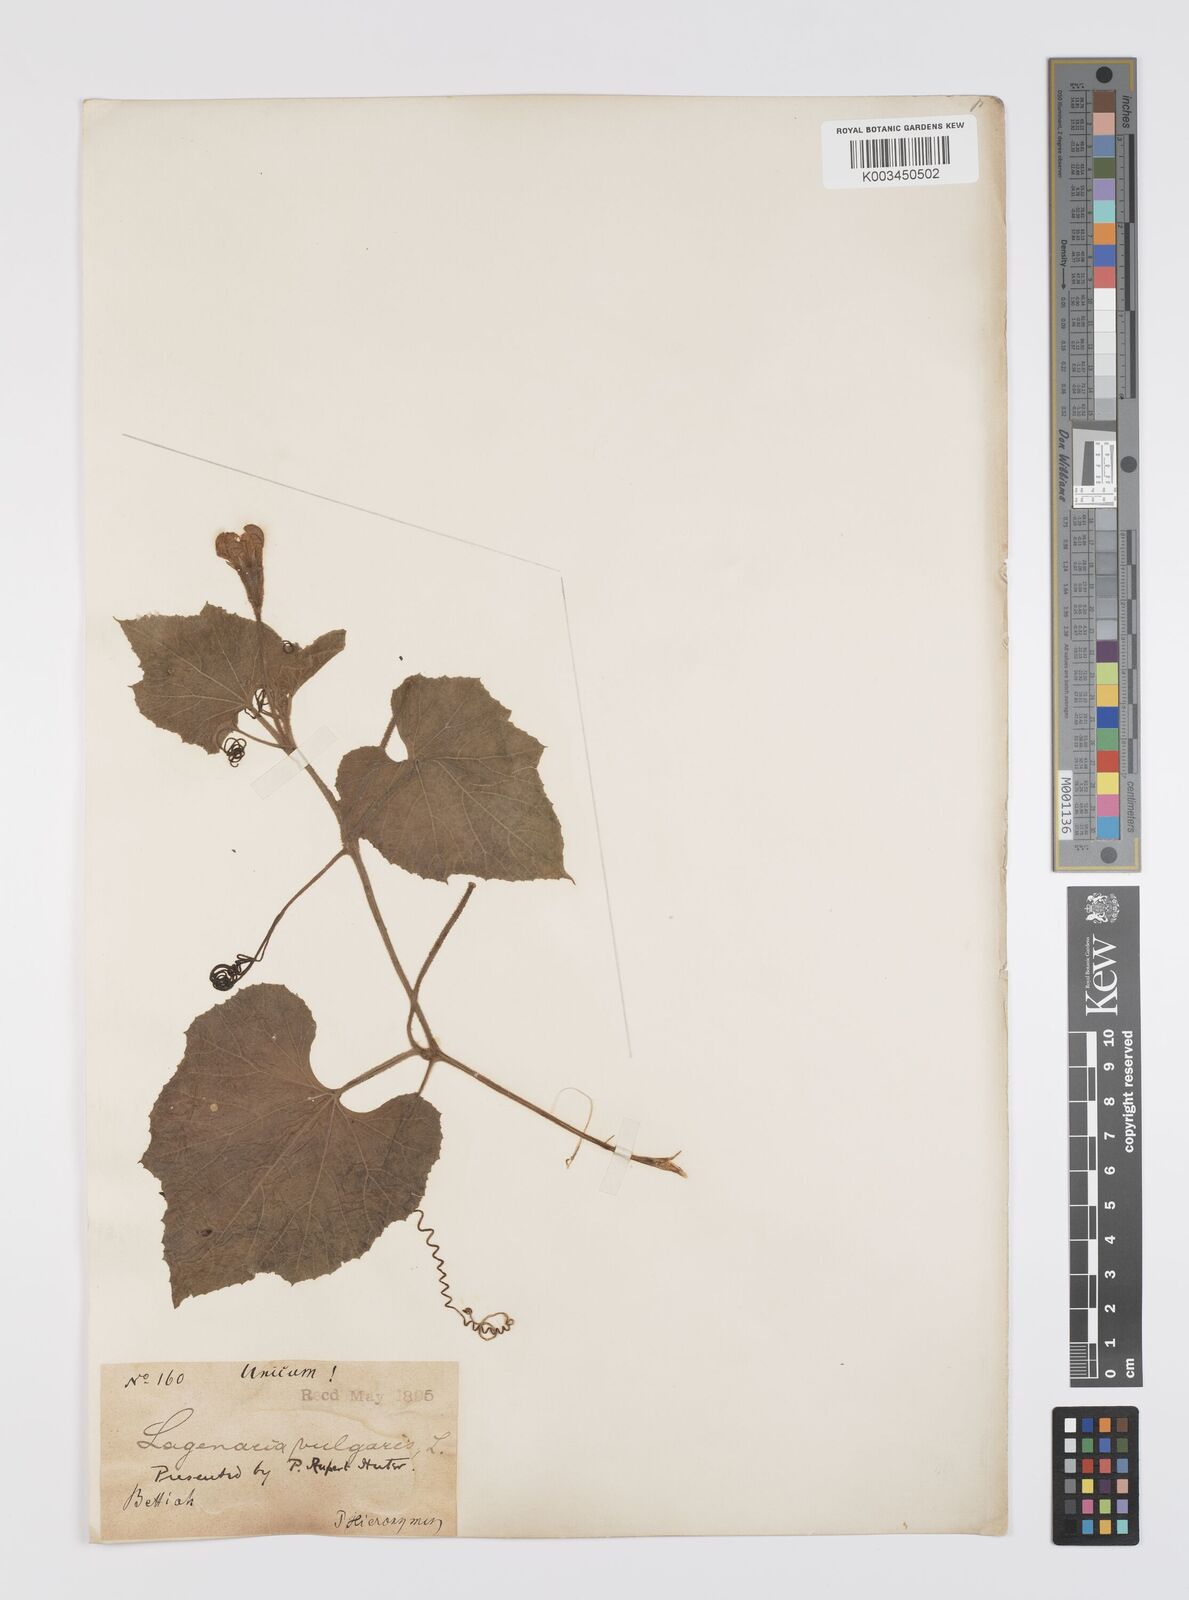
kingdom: Plantae
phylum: Tracheophyta
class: Magnoliopsida
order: Cucurbitales
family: Cucurbitaceae
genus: Lagenaria
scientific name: Lagenaria siceraria
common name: Bottle gourd
